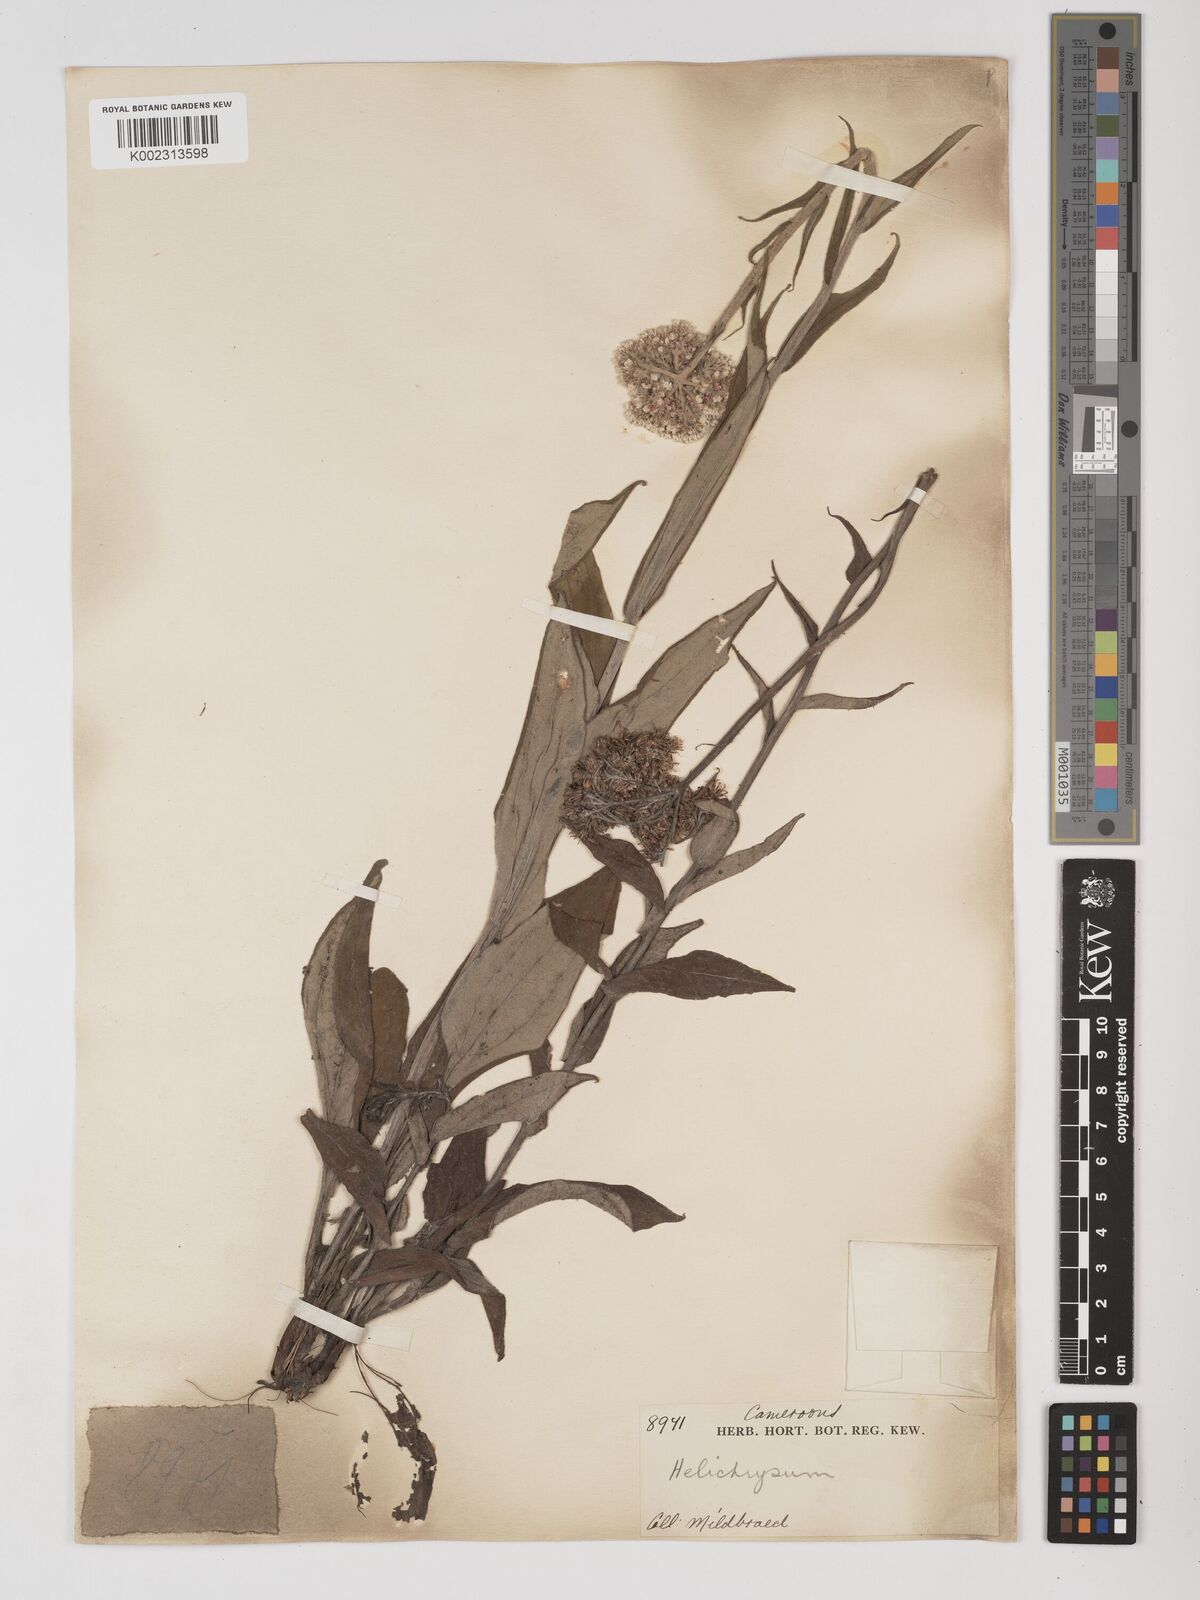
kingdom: Plantae
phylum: Tracheophyta
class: Magnoliopsida
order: Asterales
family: Asteraceae
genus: Helichrysum
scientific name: Helichrysum nudifolium
